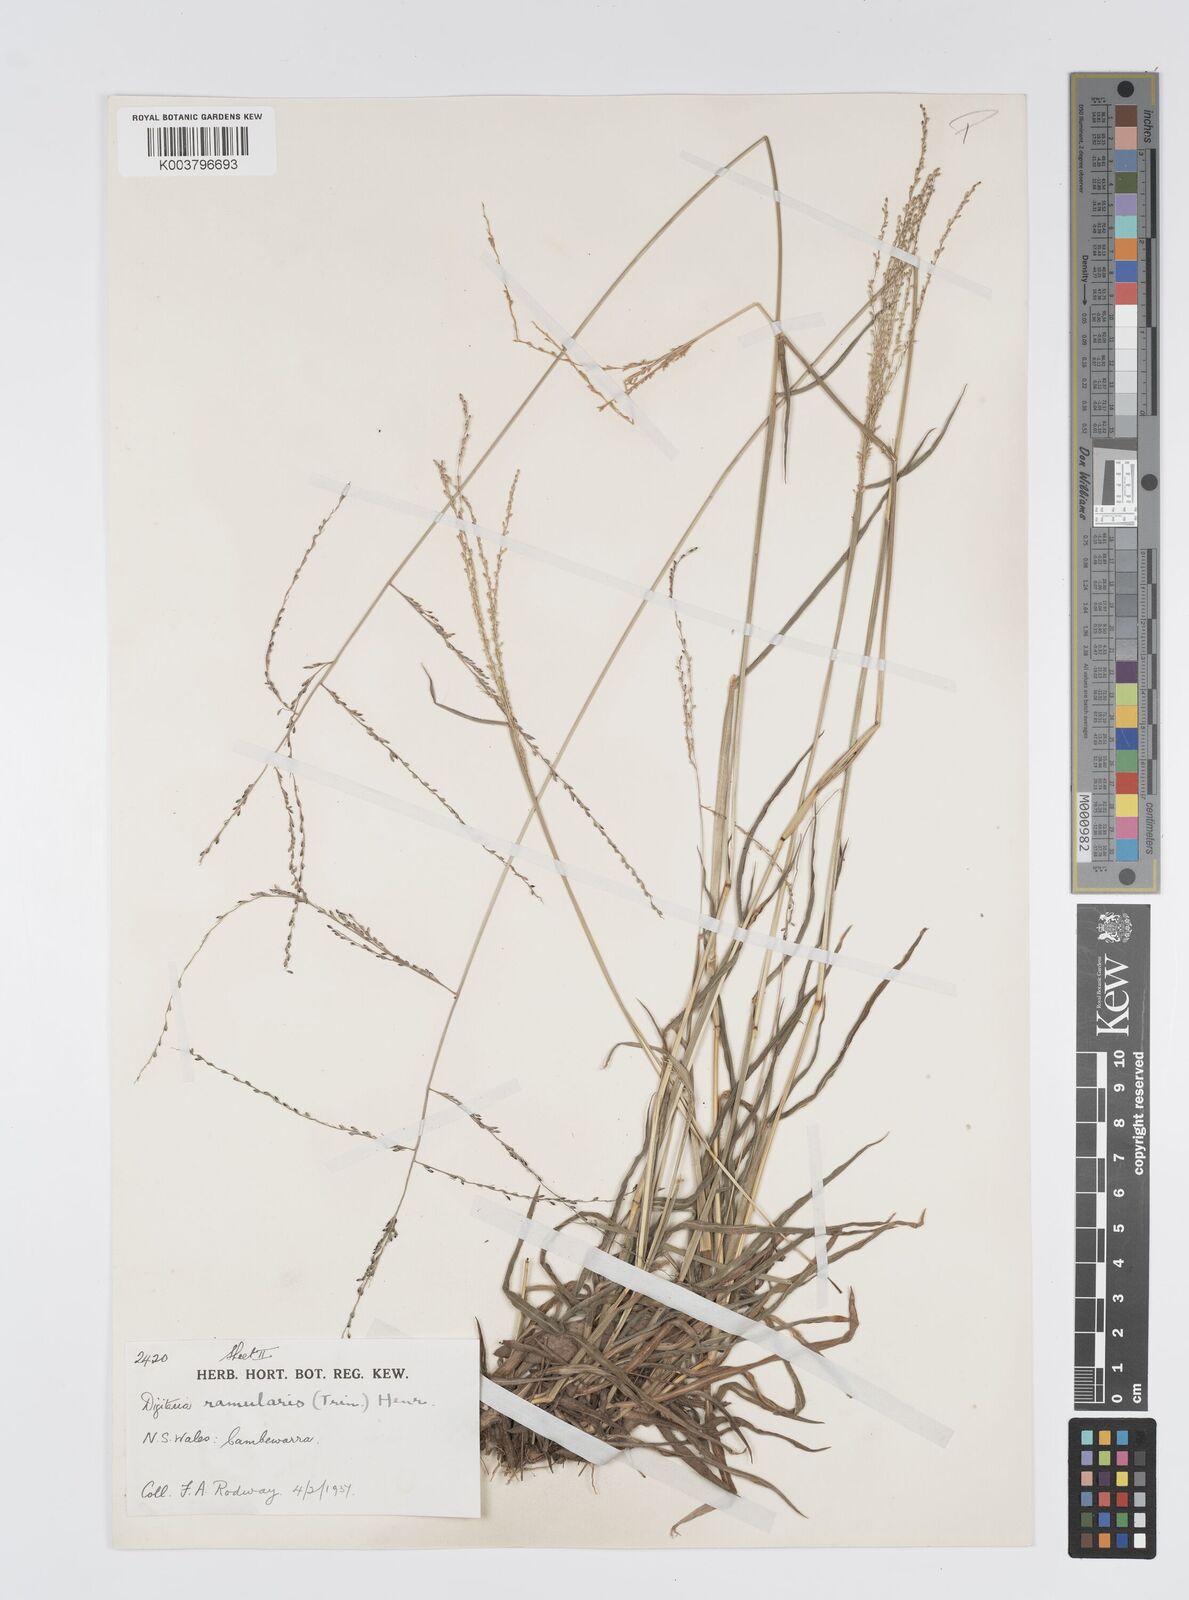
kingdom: Plantae
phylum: Tracheophyta
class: Liliopsida
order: Poales
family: Poaceae
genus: Digitaria
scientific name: Digitaria ramularis
